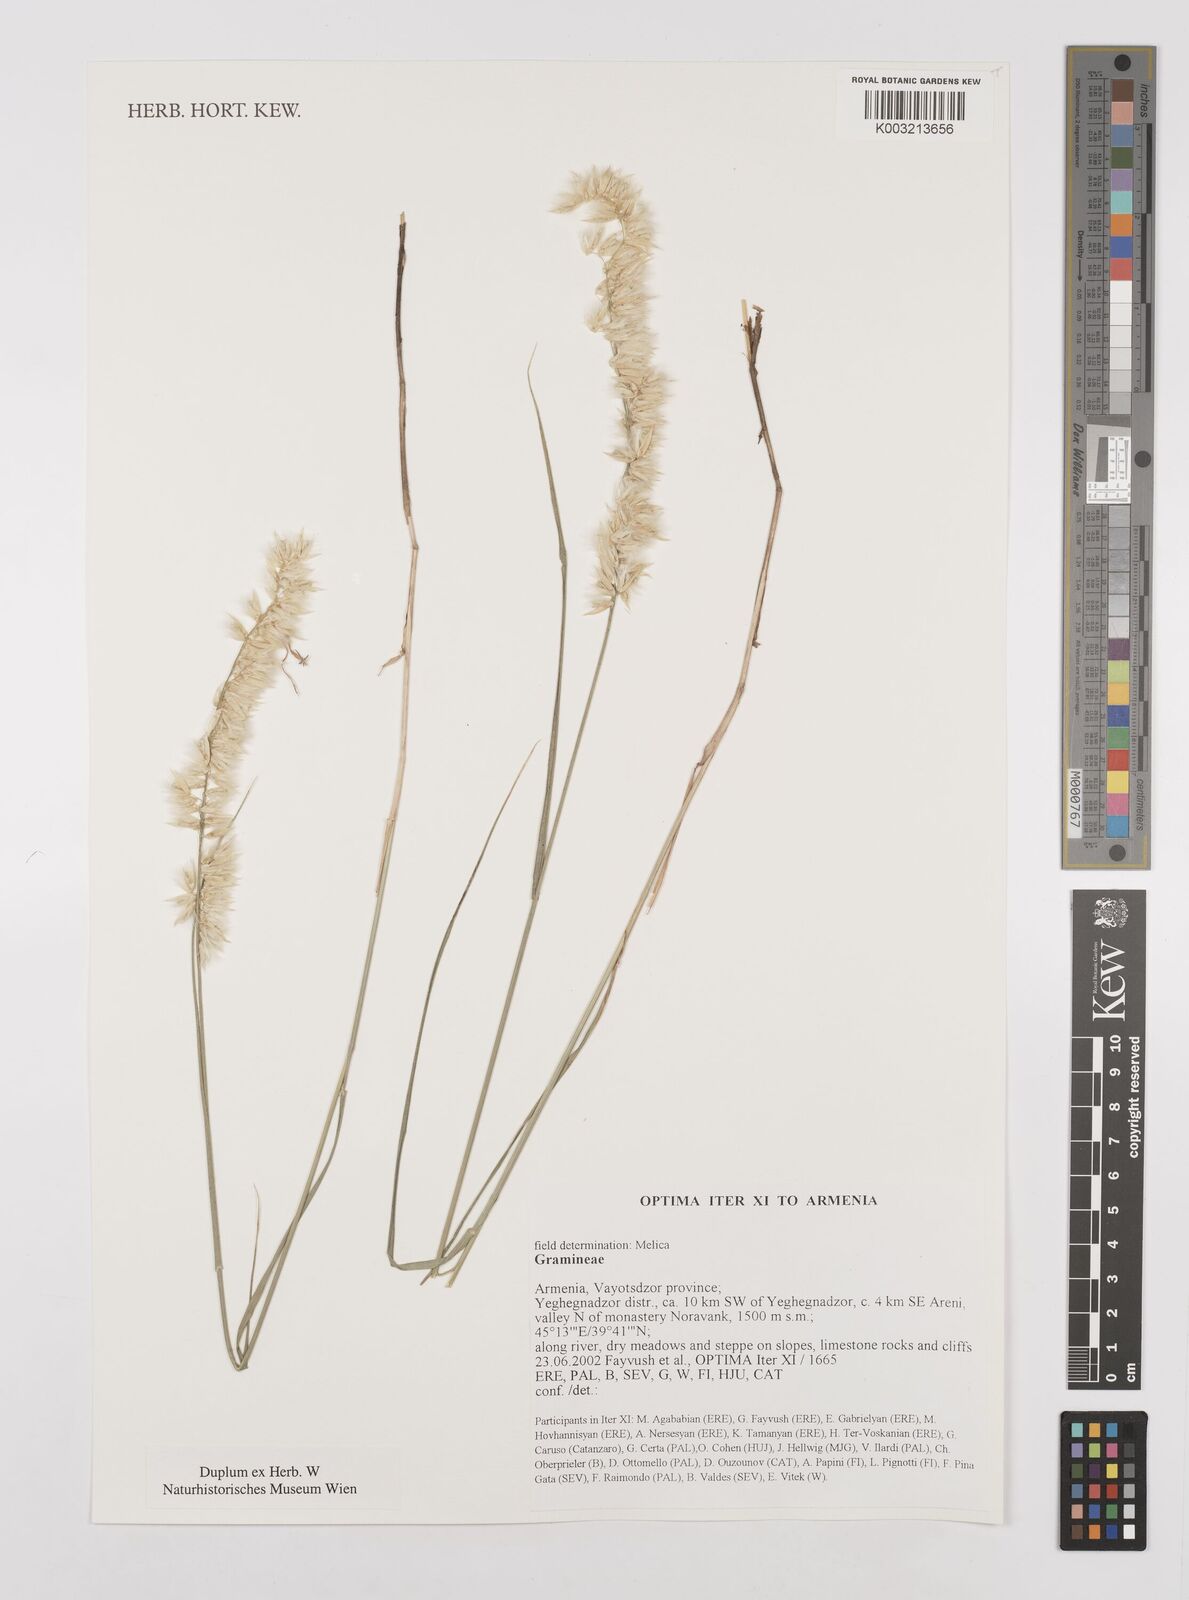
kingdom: Plantae
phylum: Tracheophyta
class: Liliopsida
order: Poales
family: Poaceae
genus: Melica
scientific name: Melica
